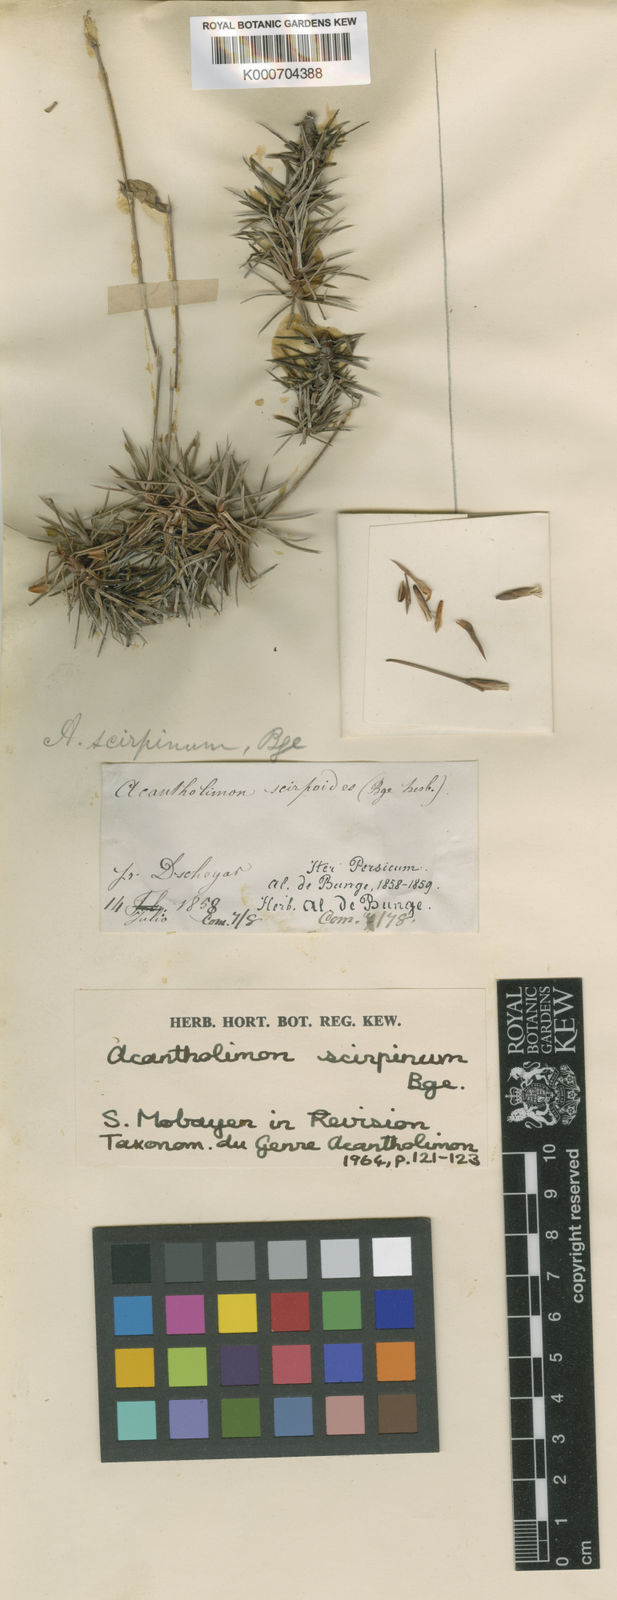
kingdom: Plantae
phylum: Tracheophyta
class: Magnoliopsida
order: Caryophyllales
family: Plumbaginaceae
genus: Acantholimon
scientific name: Acantholimon scirpinum
